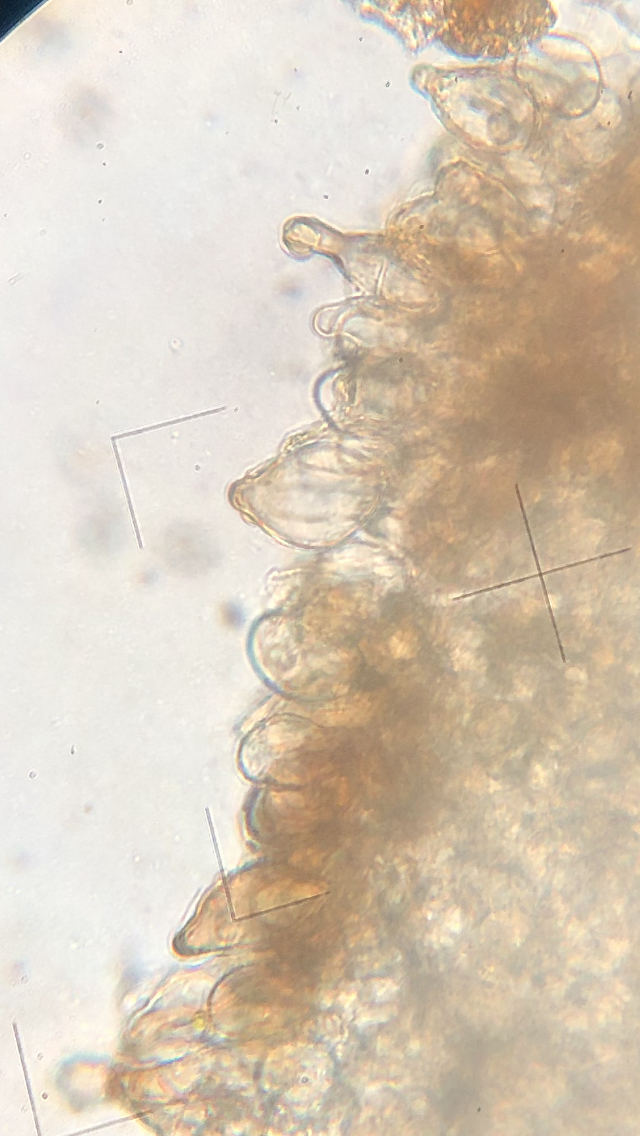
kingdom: Fungi
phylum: Basidiomycota
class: Agaricomycetes
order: Agaricales
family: Inocybaceae
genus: Inocybe
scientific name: Inocybe
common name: trævlhat
